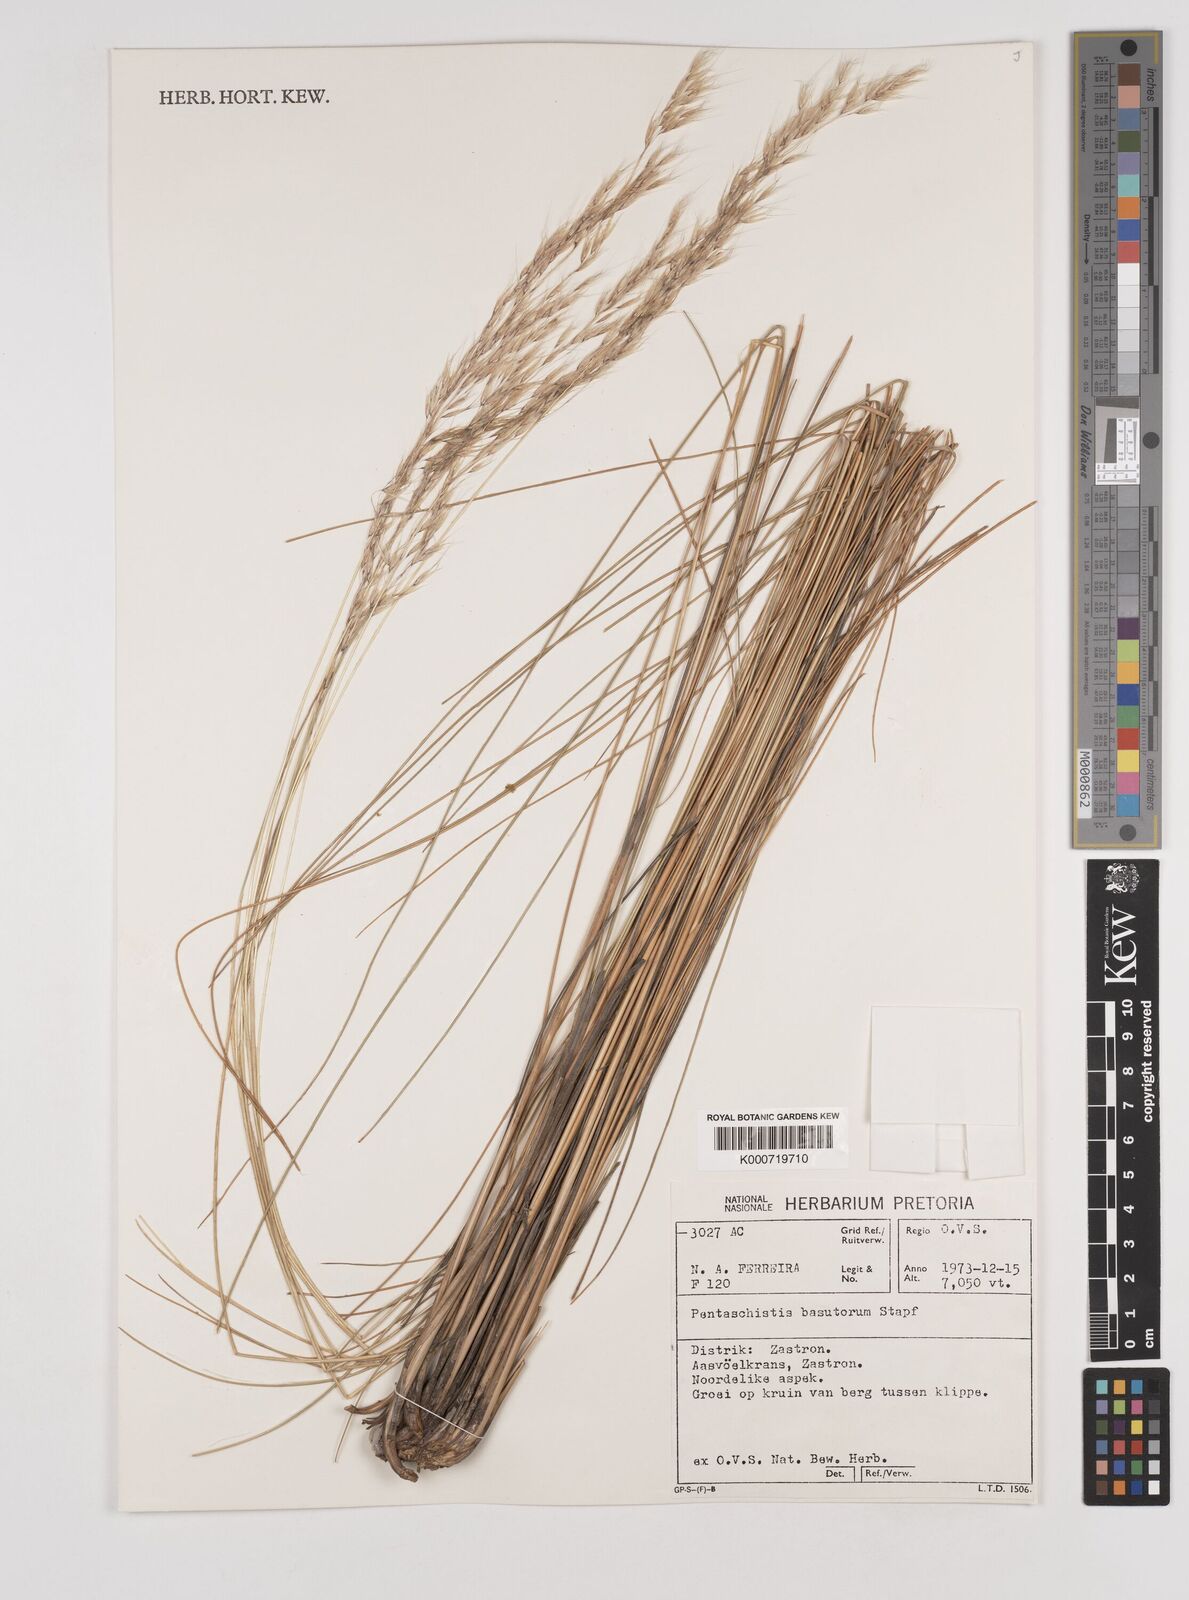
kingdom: Plantae
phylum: Tracheophyta
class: Liliopsida
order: Poales
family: Poaceae
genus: Pentameris
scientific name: Pentameris basutorum
